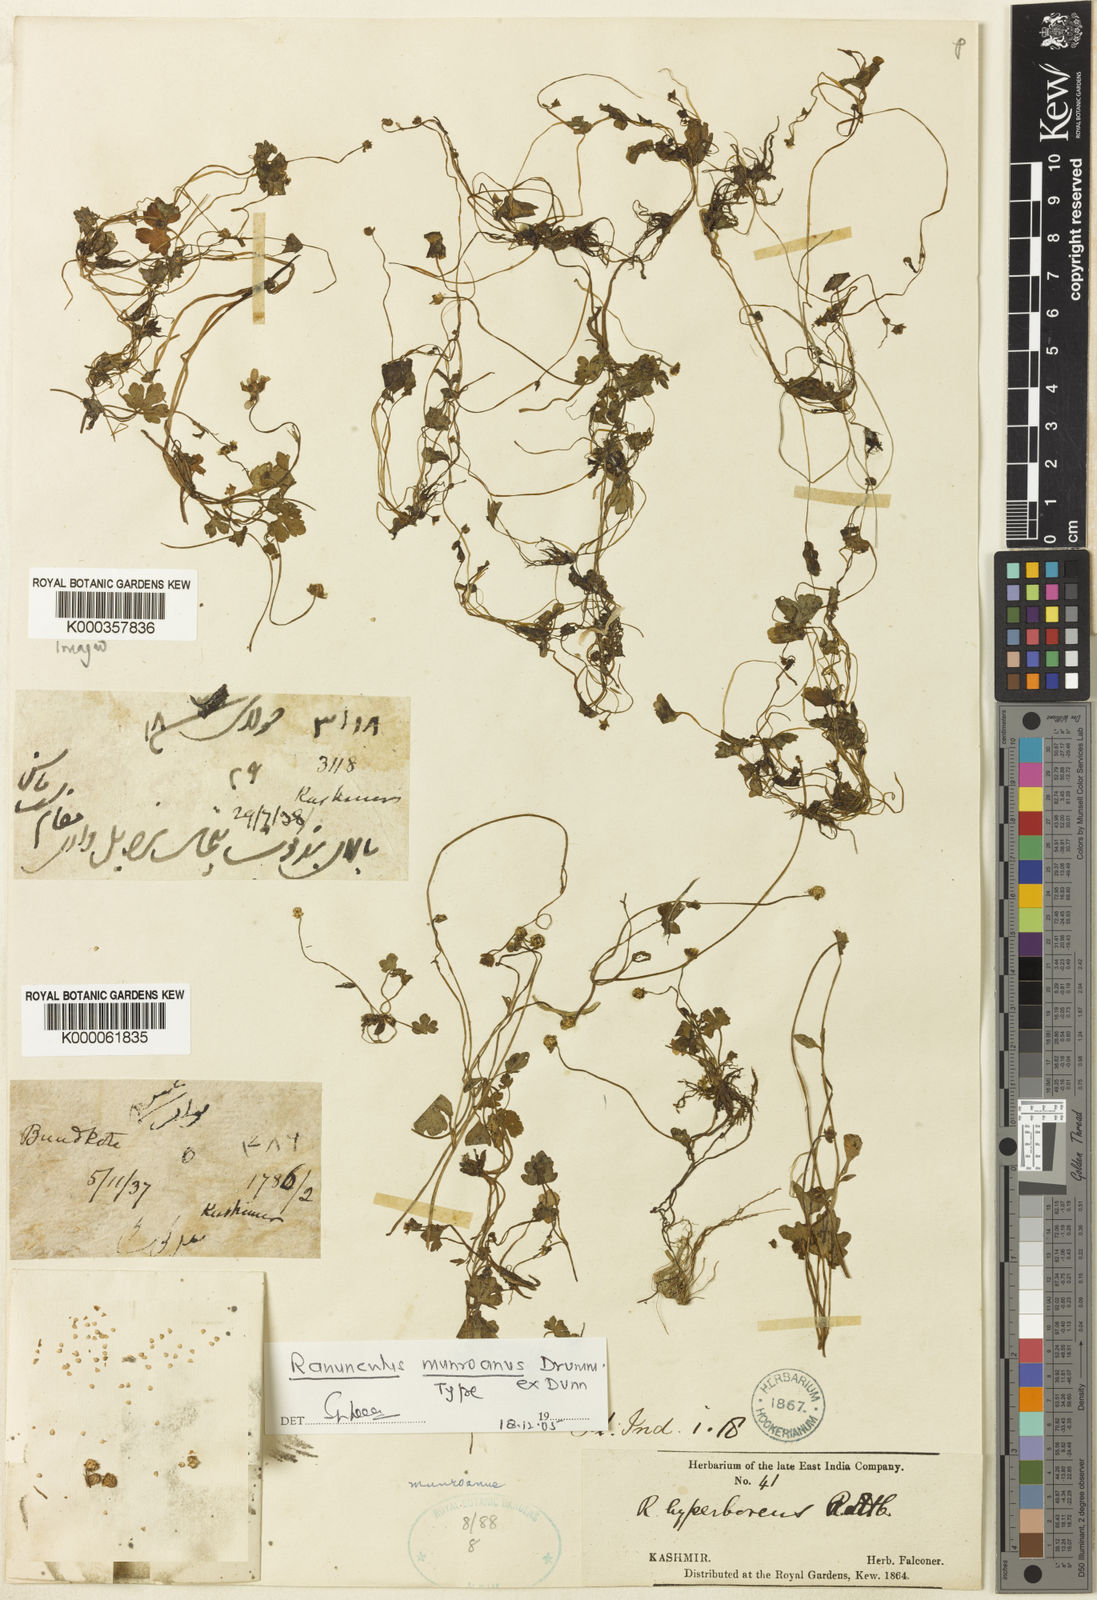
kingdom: Plantae
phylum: Tracheophyta
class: Magnoliopsida
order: Ranunculales
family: Ranunculaceae
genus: Ranunculus
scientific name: Ranunculus munroanus
